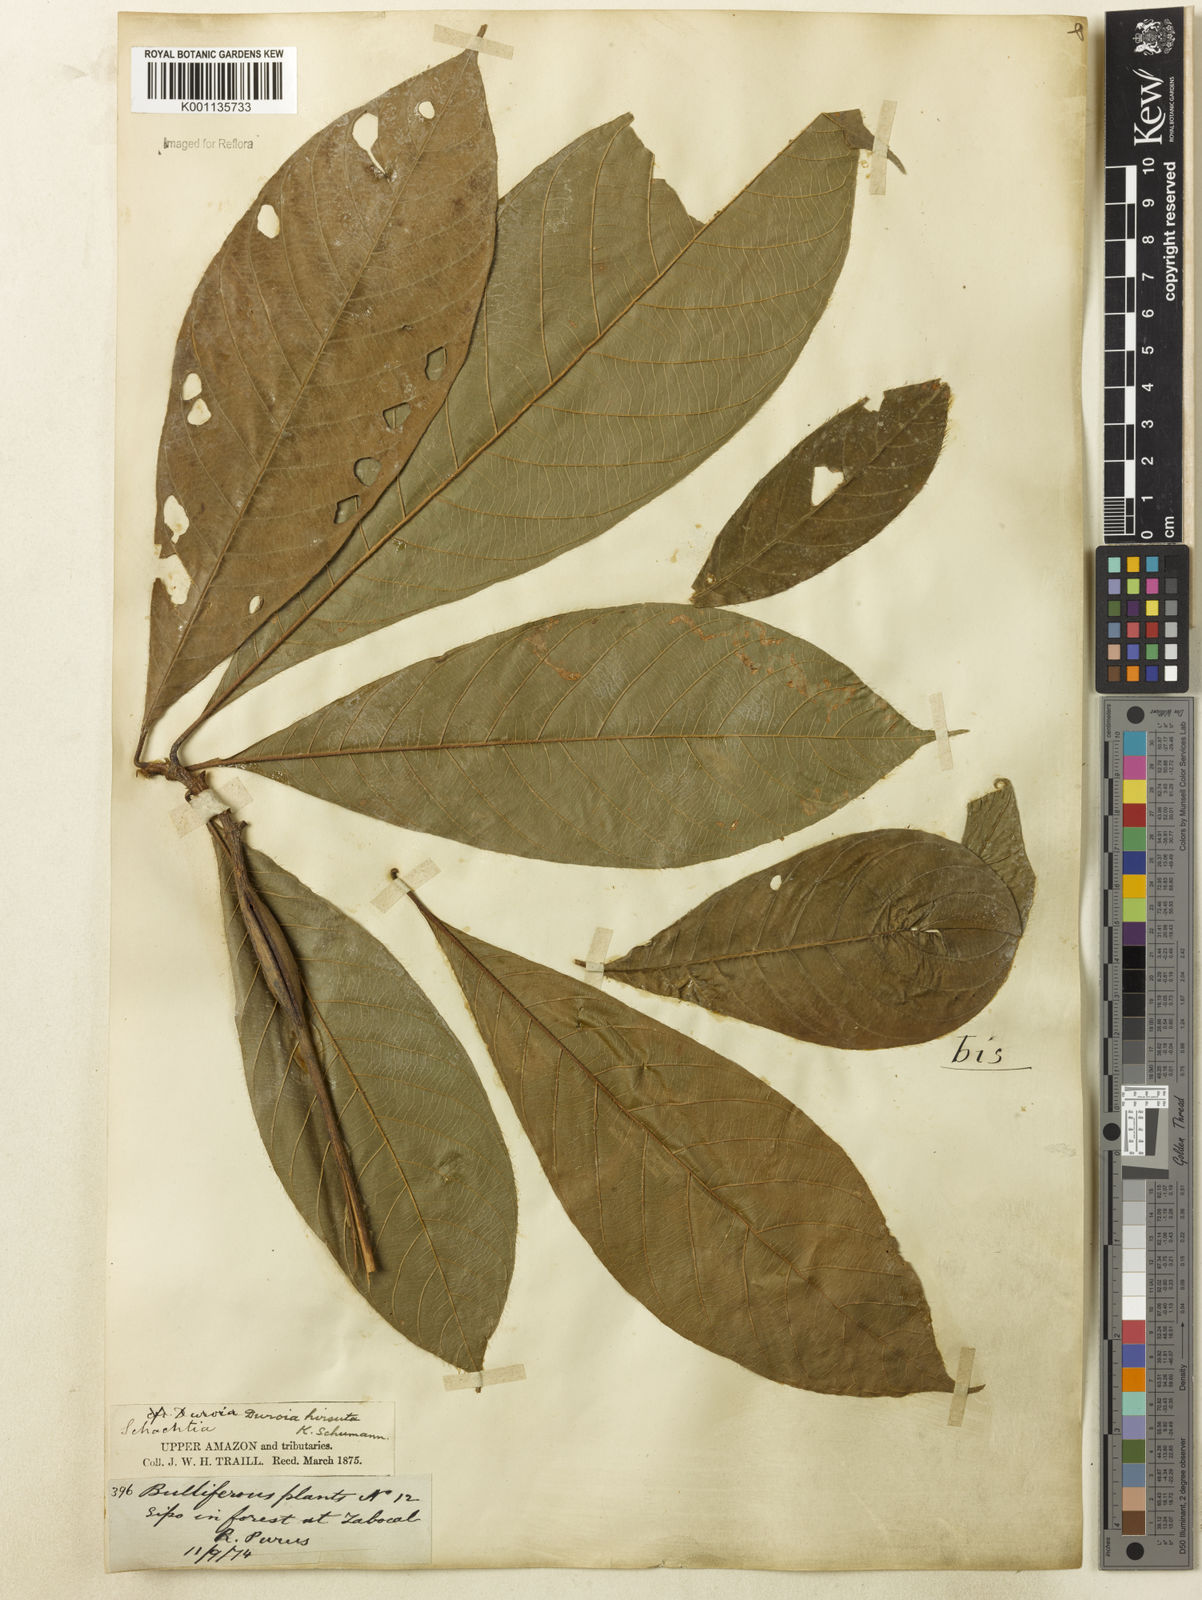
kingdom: Plantae
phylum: Tracheophyta
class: Magnoliopsida
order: Gentianales
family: Rubiaceae
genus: Duroia
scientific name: Duroia hirsuta
